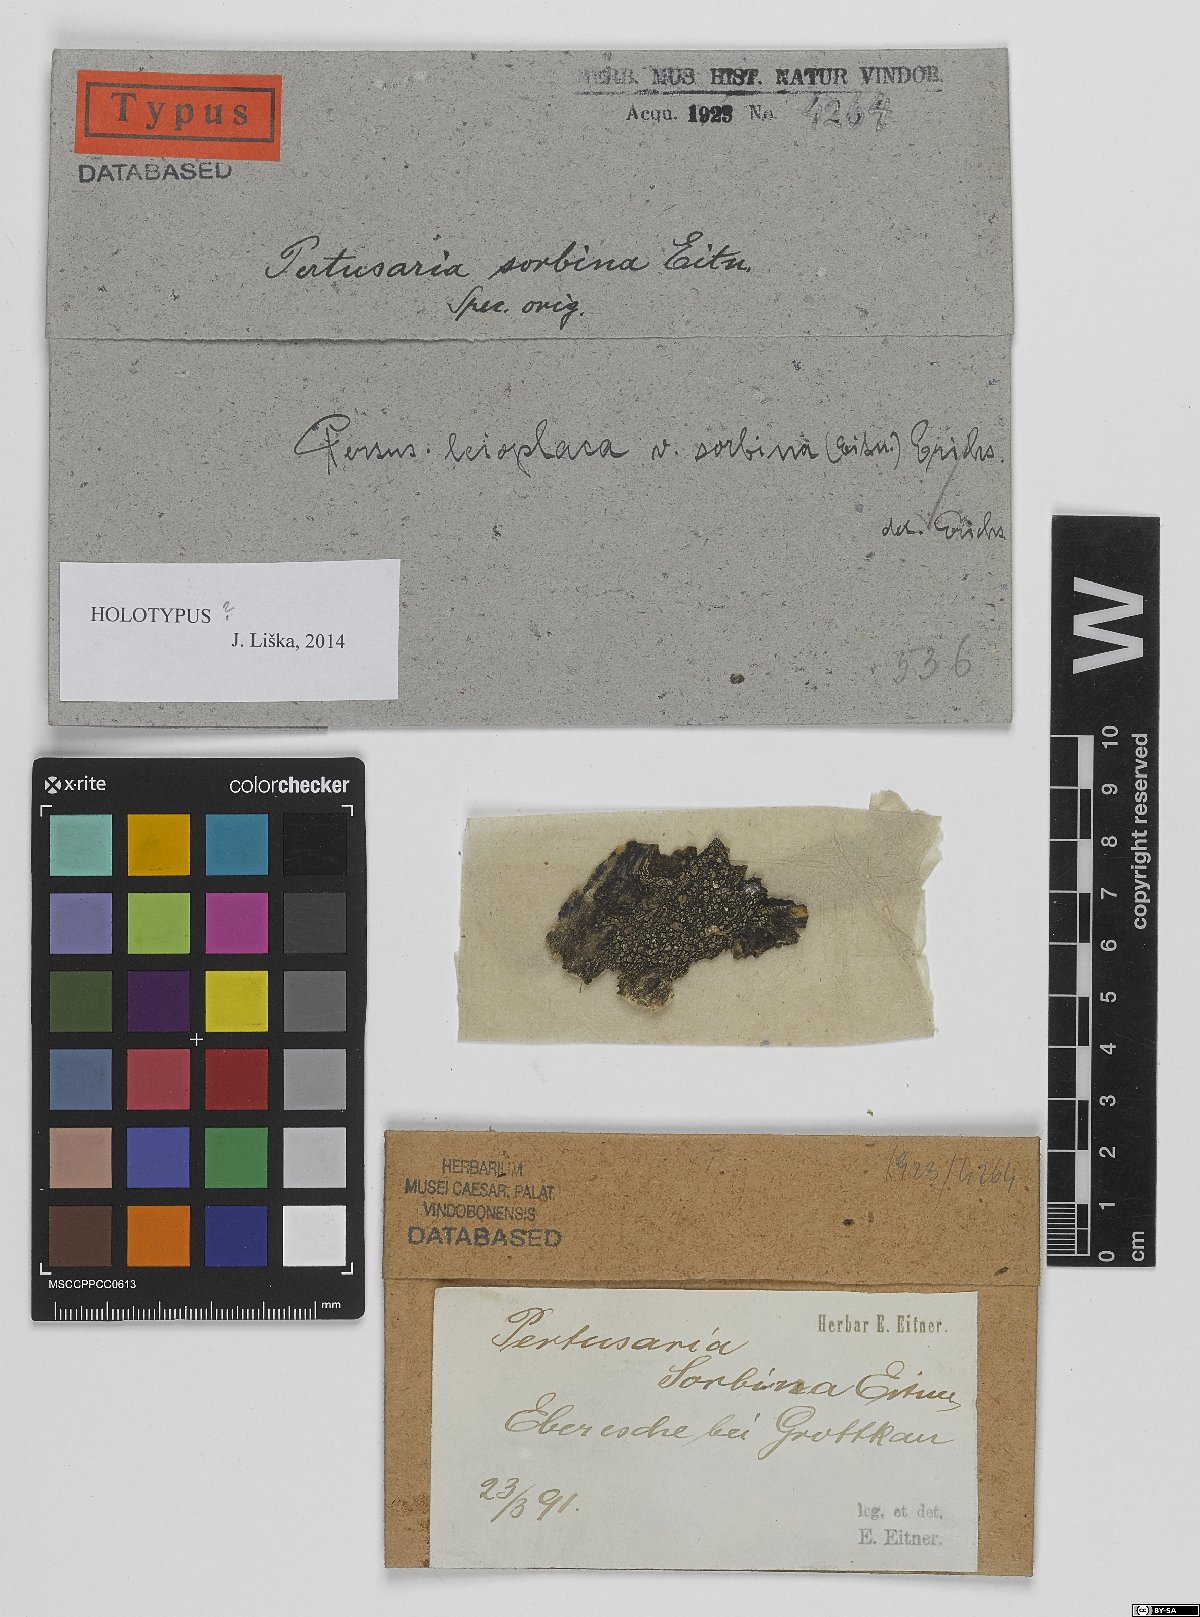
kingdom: Fungi
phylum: Ascomycota
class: Lecanoromycetes
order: Pertusariales
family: Pertusariaceae
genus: Lepra
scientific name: Lepra sordida
